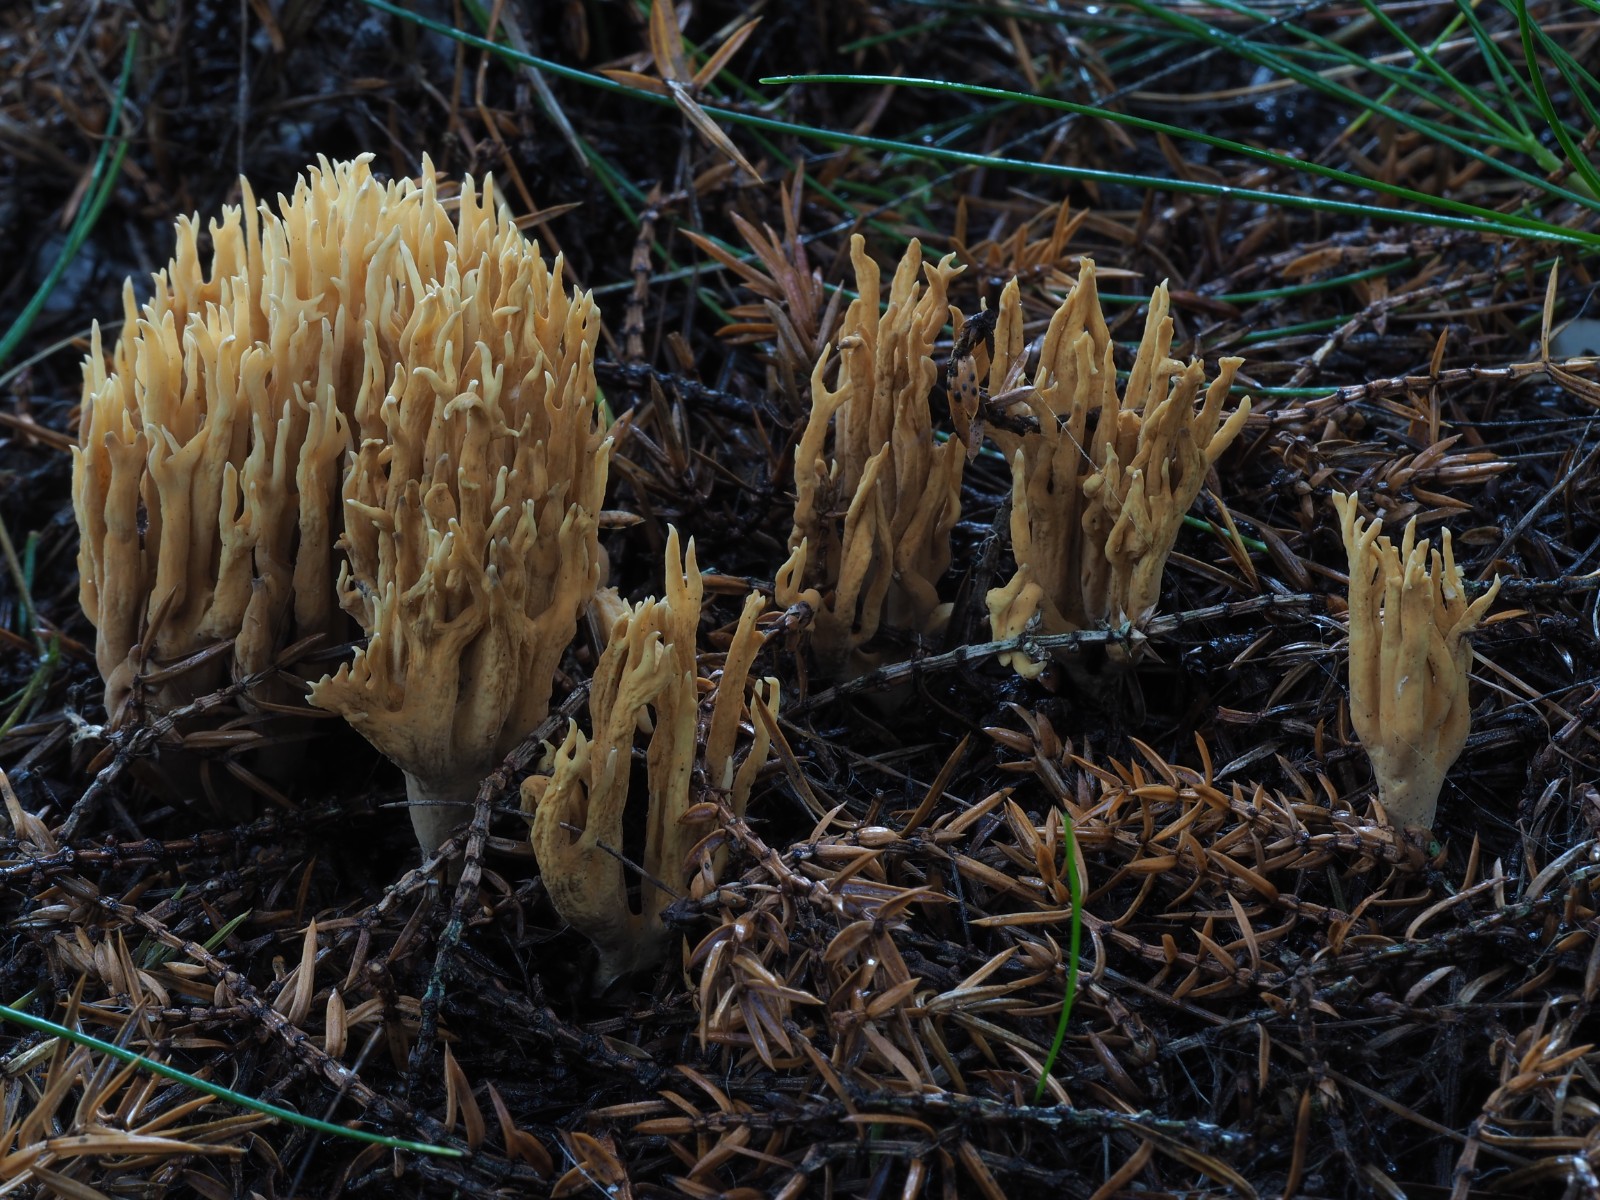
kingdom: Fungi
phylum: Basidiomycota
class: Agaricomycetes
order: Gomphales
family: Gomphaceae
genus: Phaeoclavulina
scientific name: Phaeoclavulina eumorpha
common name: gran-koralsvamp
